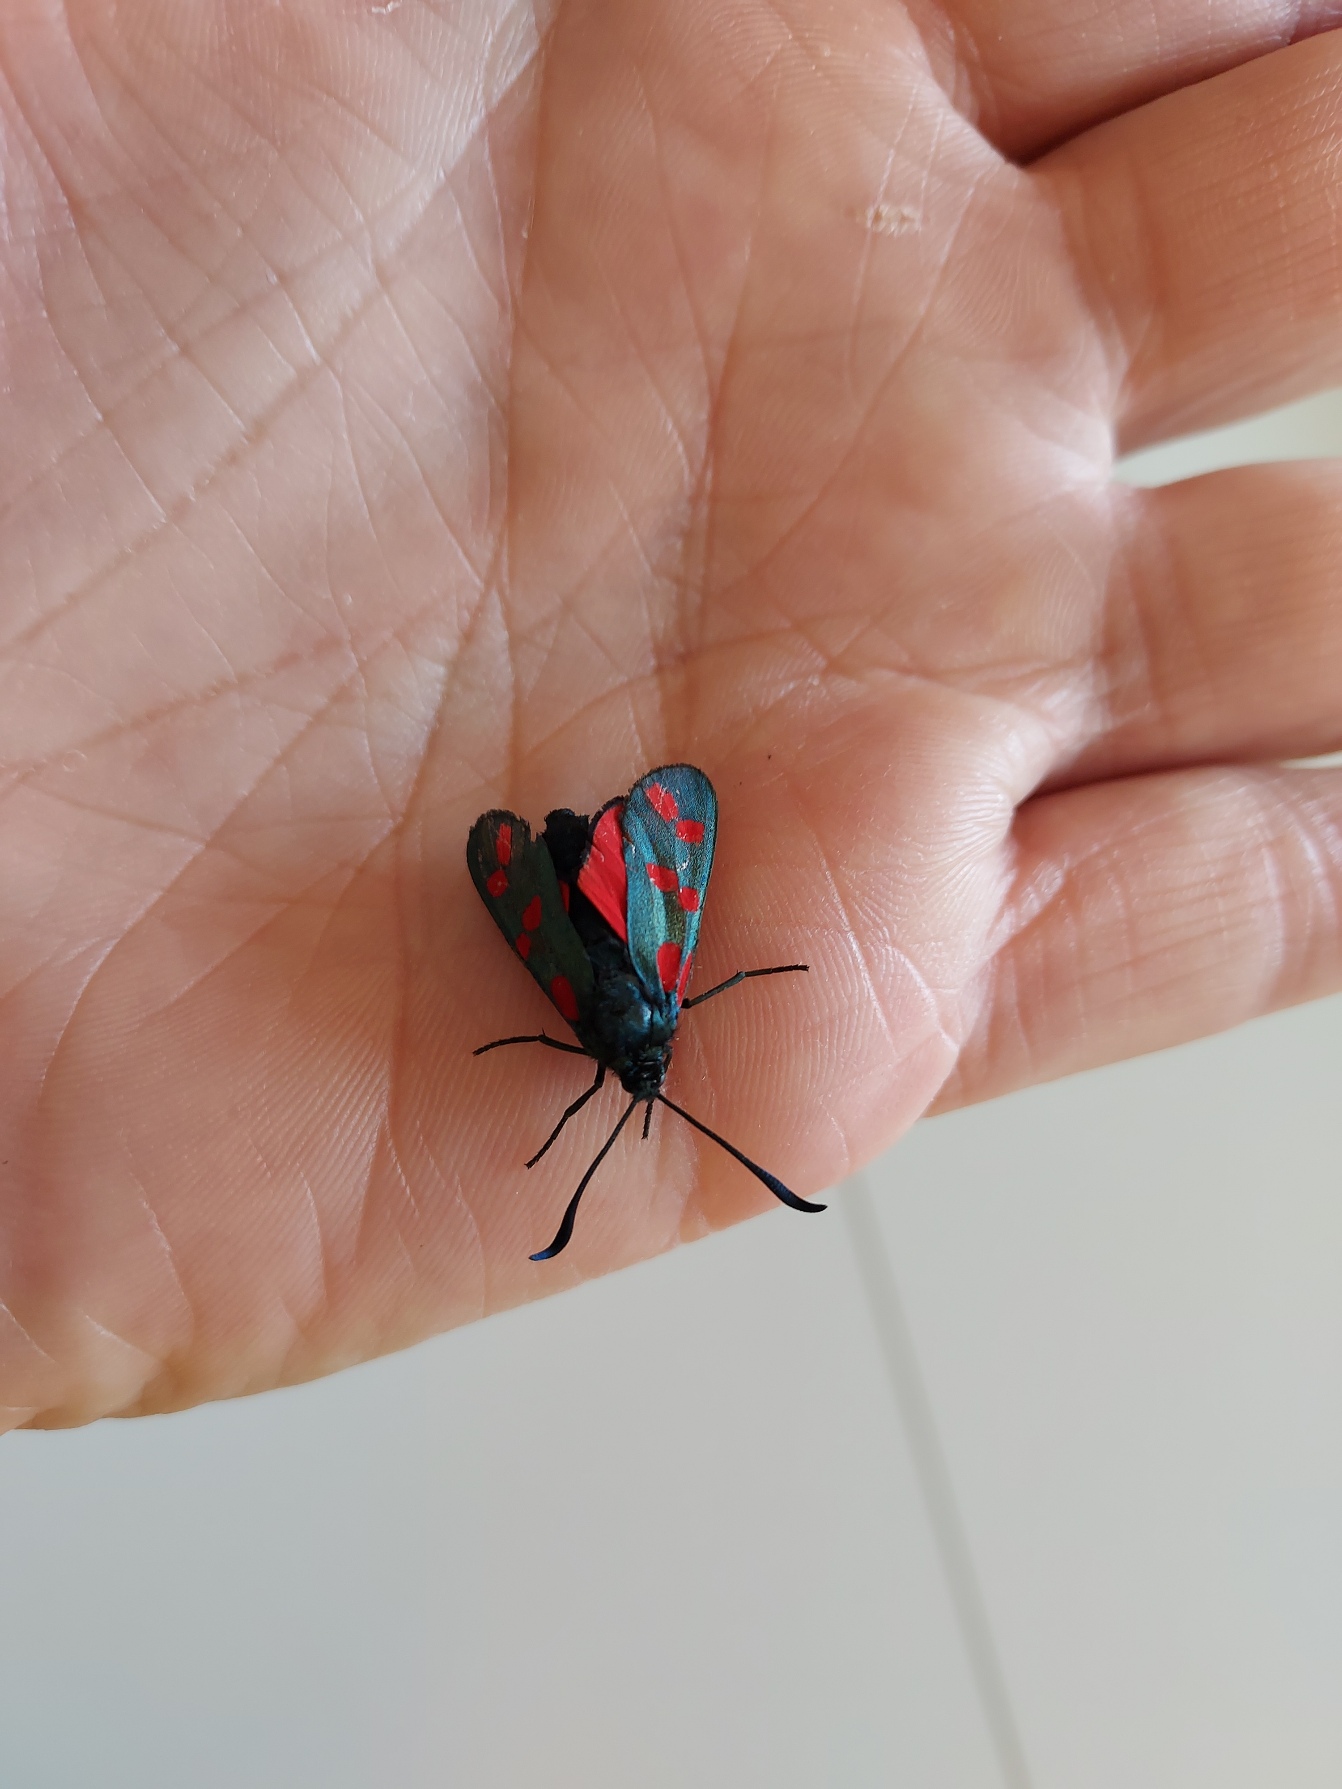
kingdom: Animalia
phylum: Arthropoda
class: Insecta
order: Lepidoptera
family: Zygaenidae
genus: Zygaena
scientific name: Zygaena filipendulae
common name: Seksplettet køllesværmer
